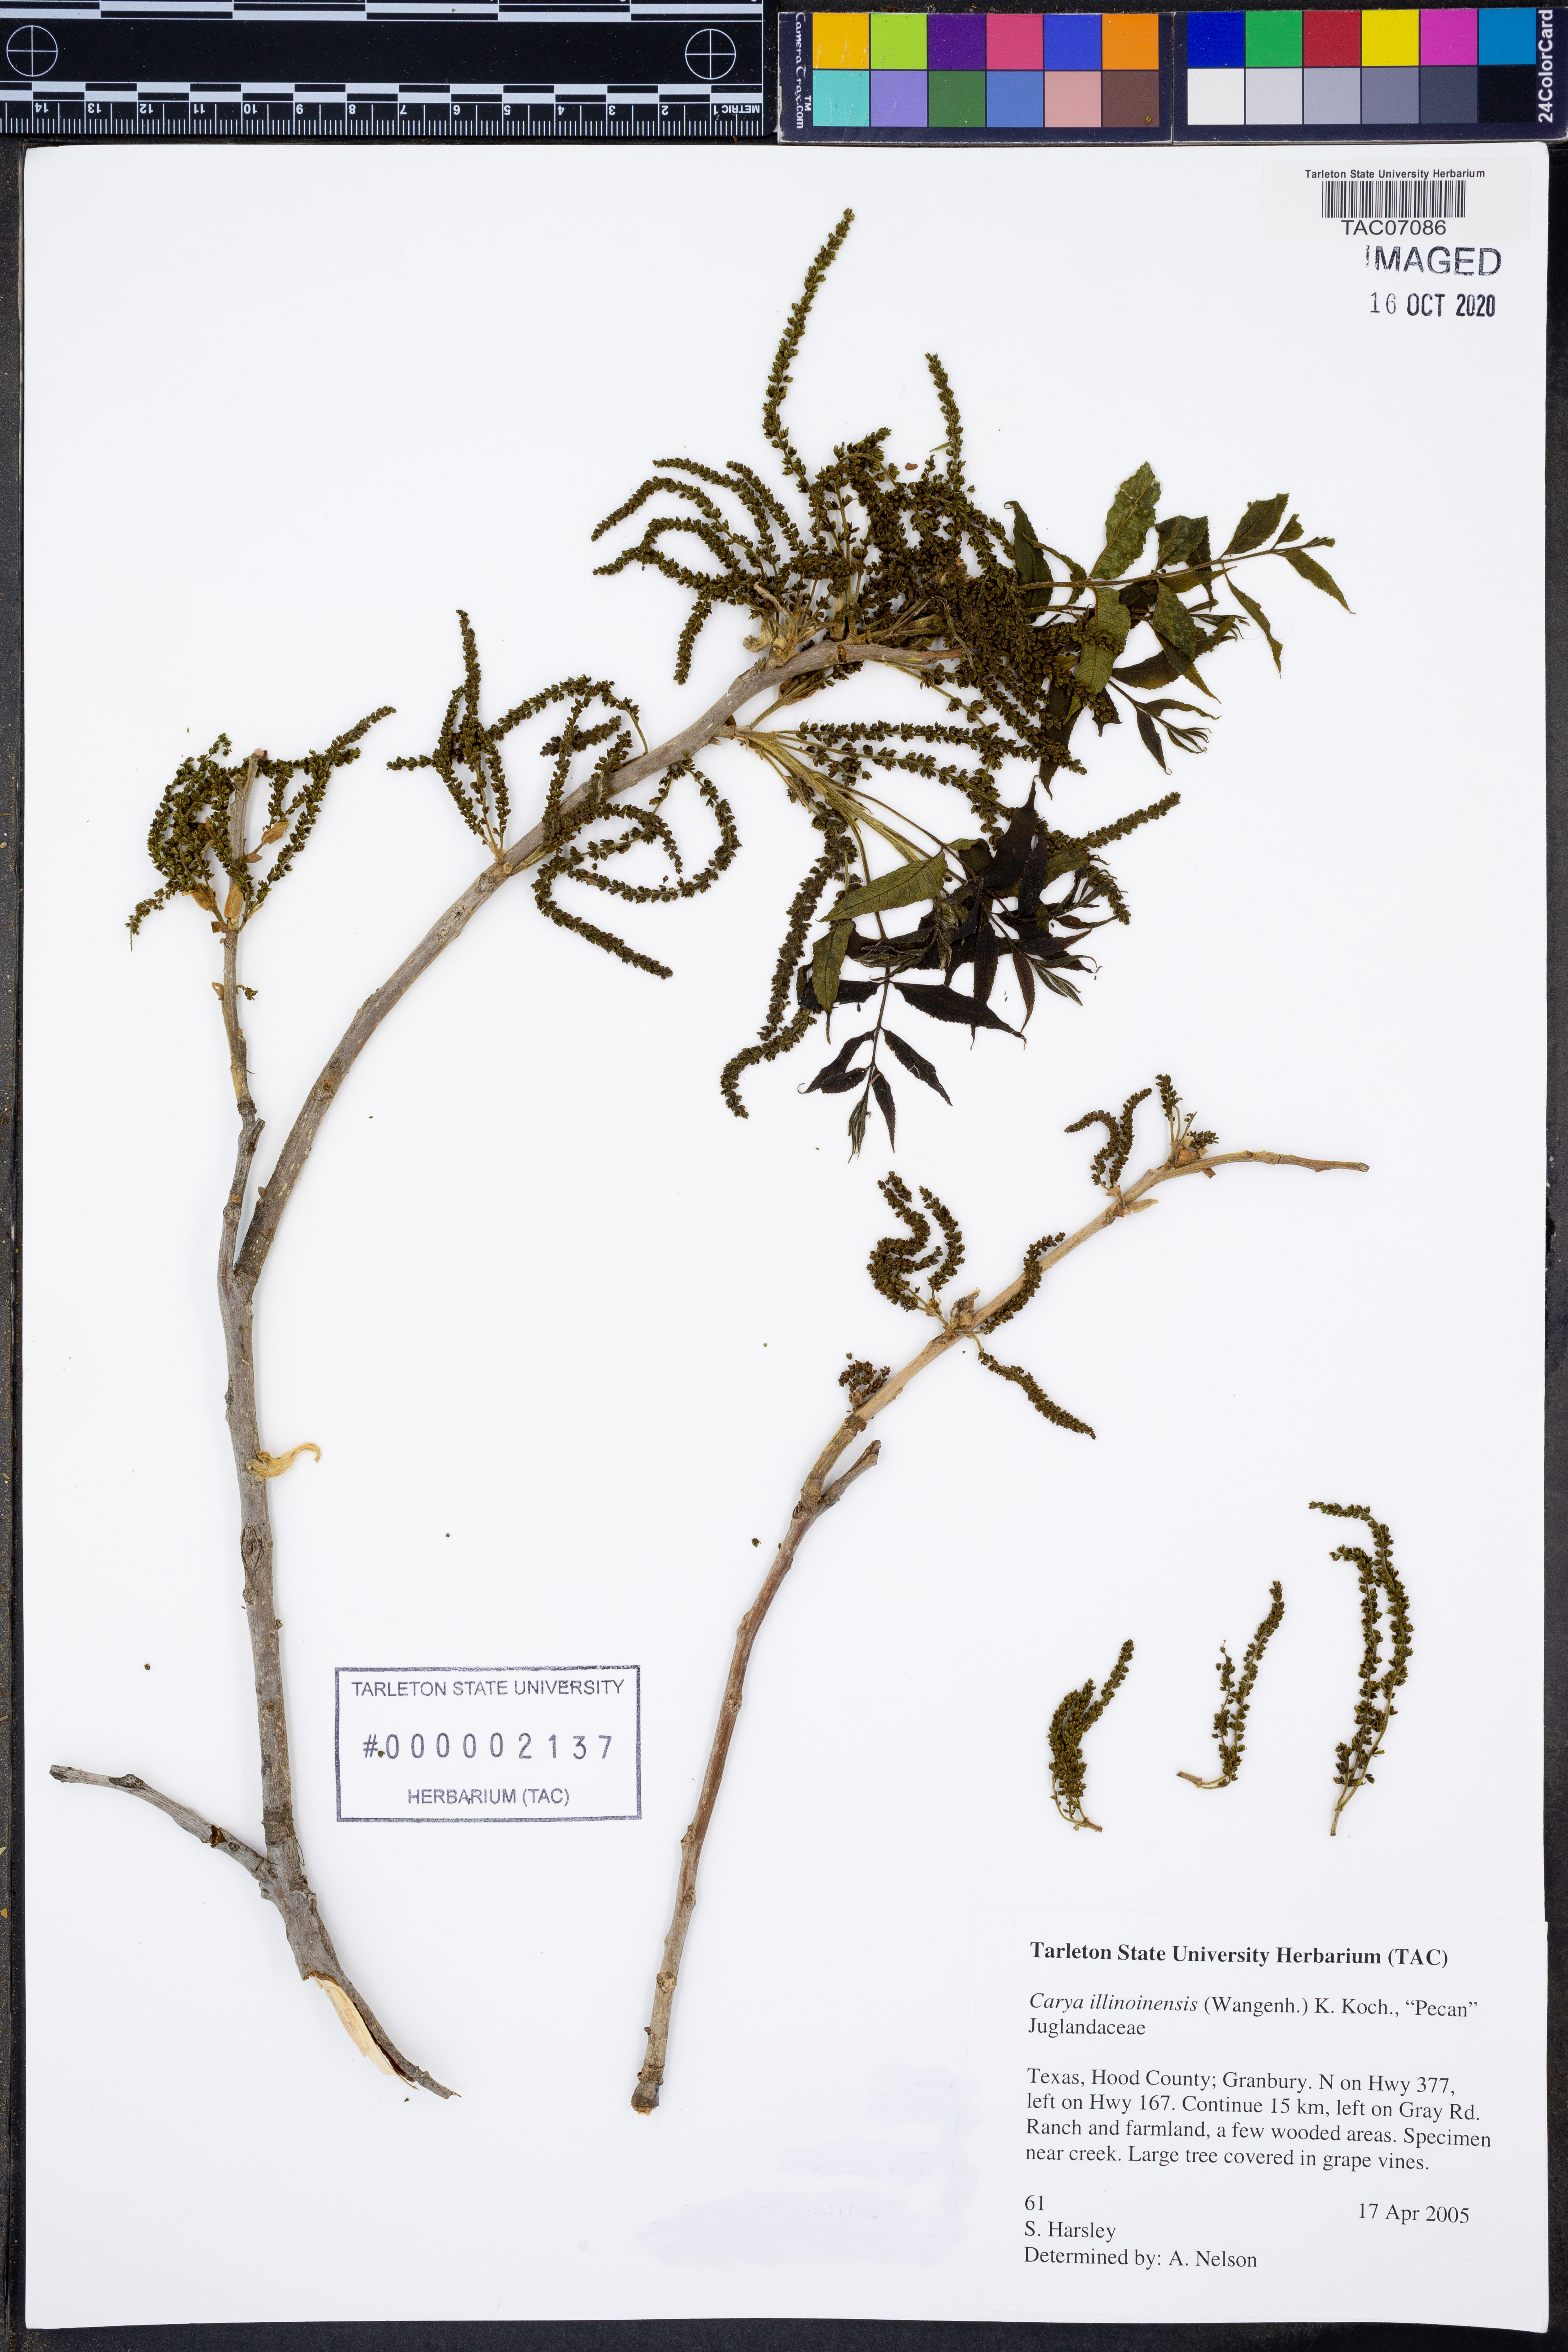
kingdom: Plantae
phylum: Tracheophyta
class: Magnoliopsida
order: Fagales
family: Juglandaceae
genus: Carya
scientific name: Carya illinoinensis
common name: Pecan
